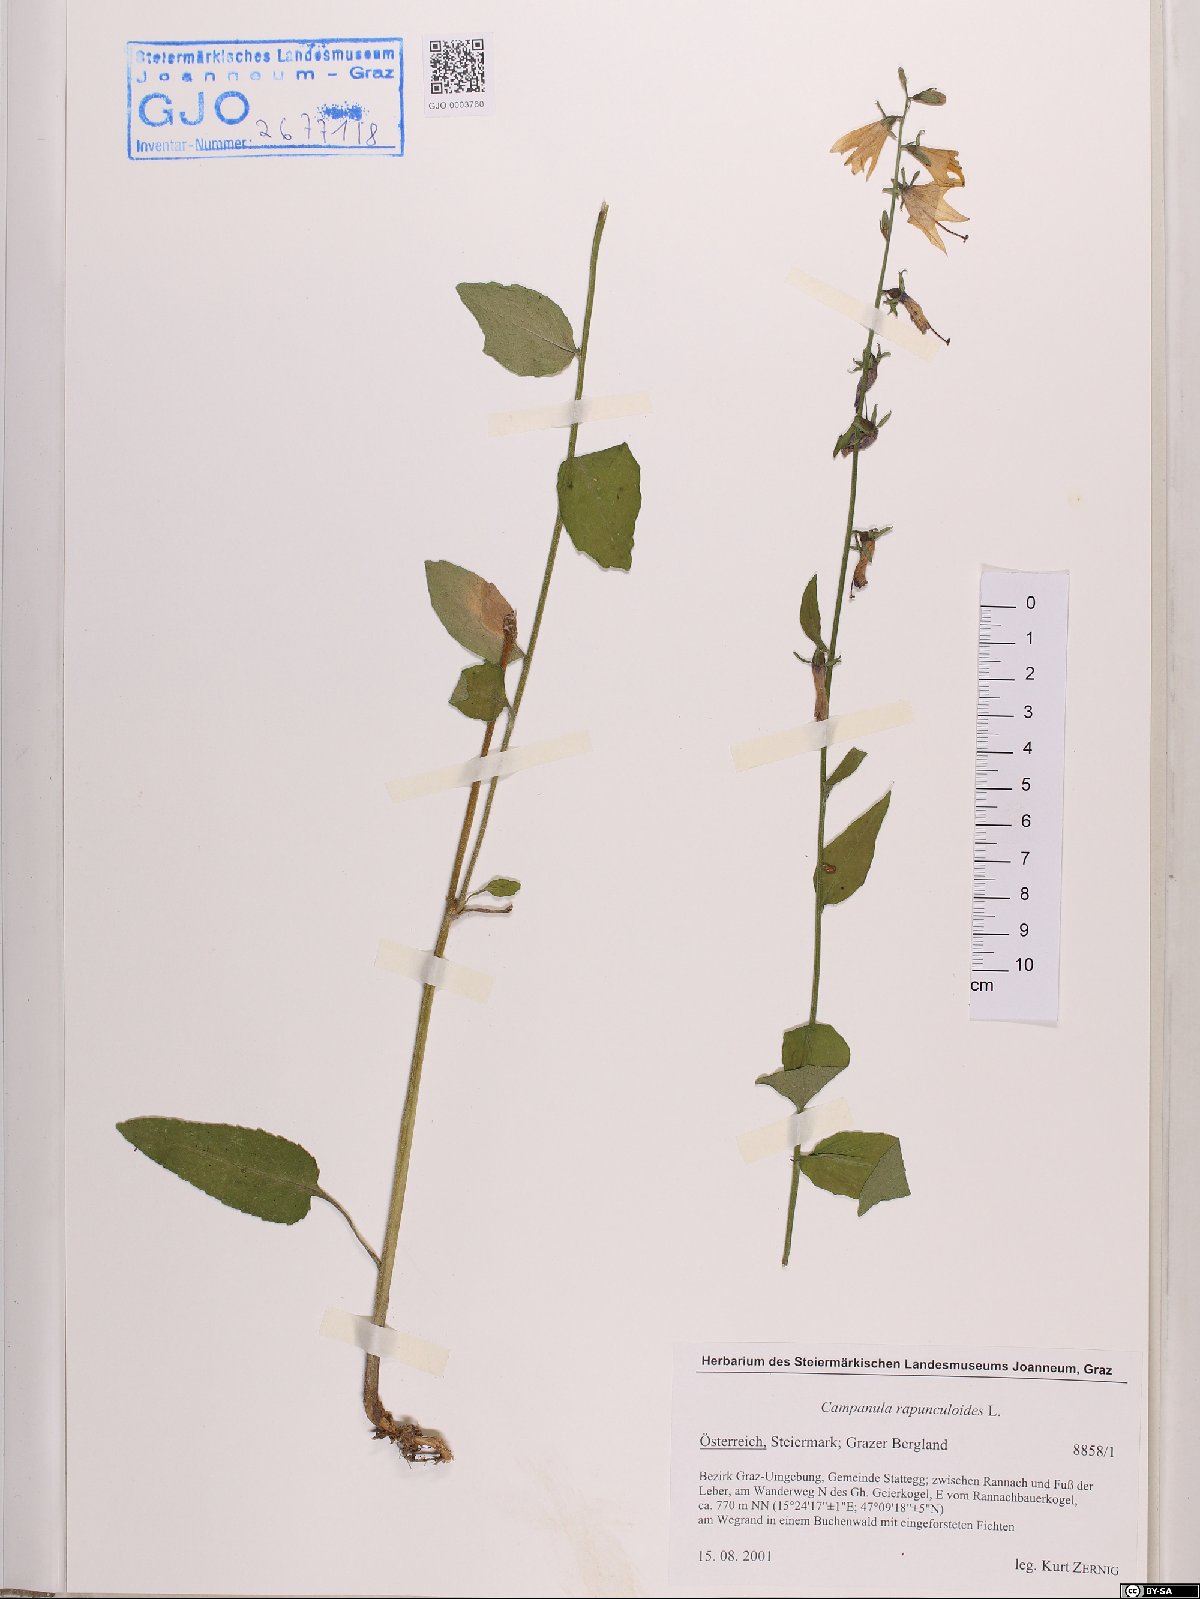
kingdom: Plantae
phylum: Tracheophyta
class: Magnoliopsida
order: Asterales
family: Campanulaceae
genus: Campanula
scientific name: Campanula rapunculoides
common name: Creeping bellflower
